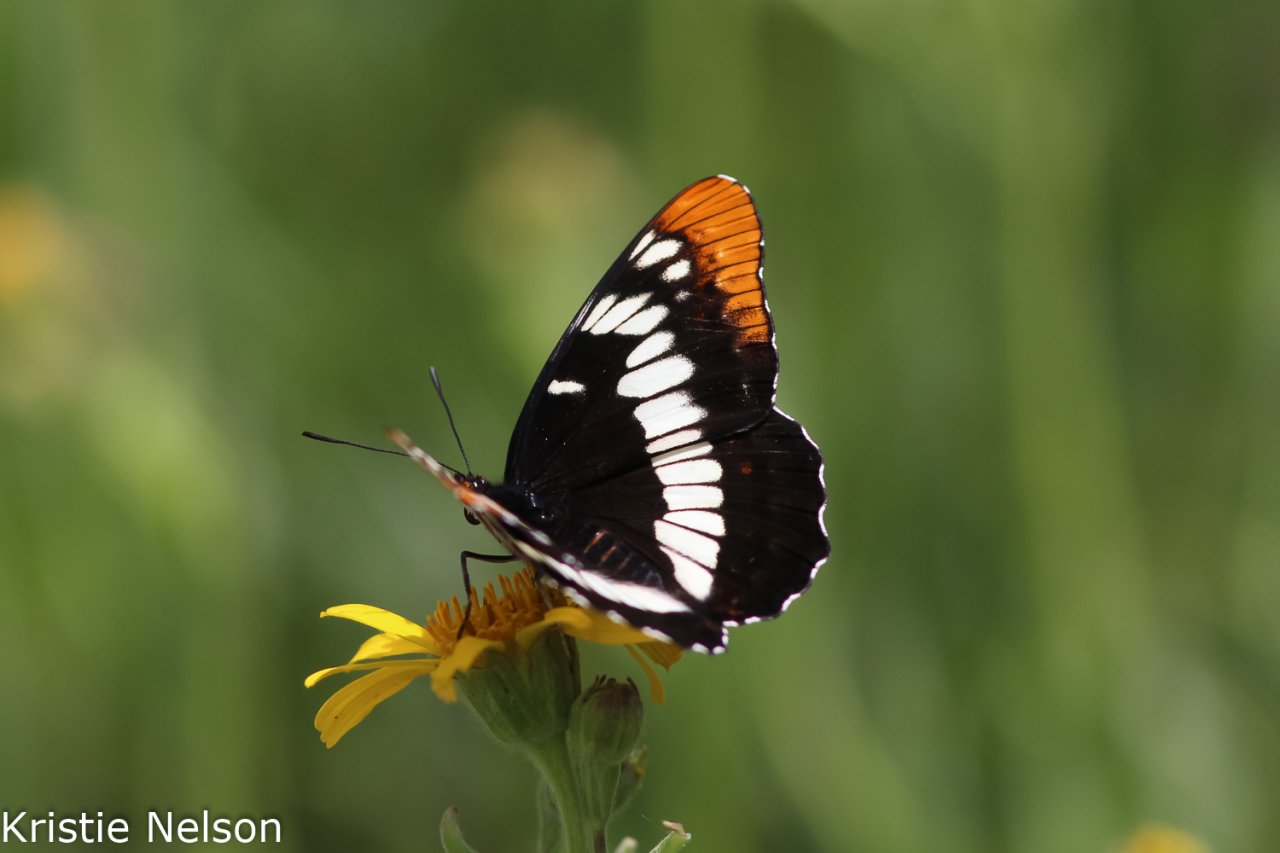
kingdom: Animalia
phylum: Arthropoda
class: Insecta
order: Lepidoptera
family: Nymphalidae
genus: Limenitis
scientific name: Limenitis lorquini
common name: Lorquin's Admiral
